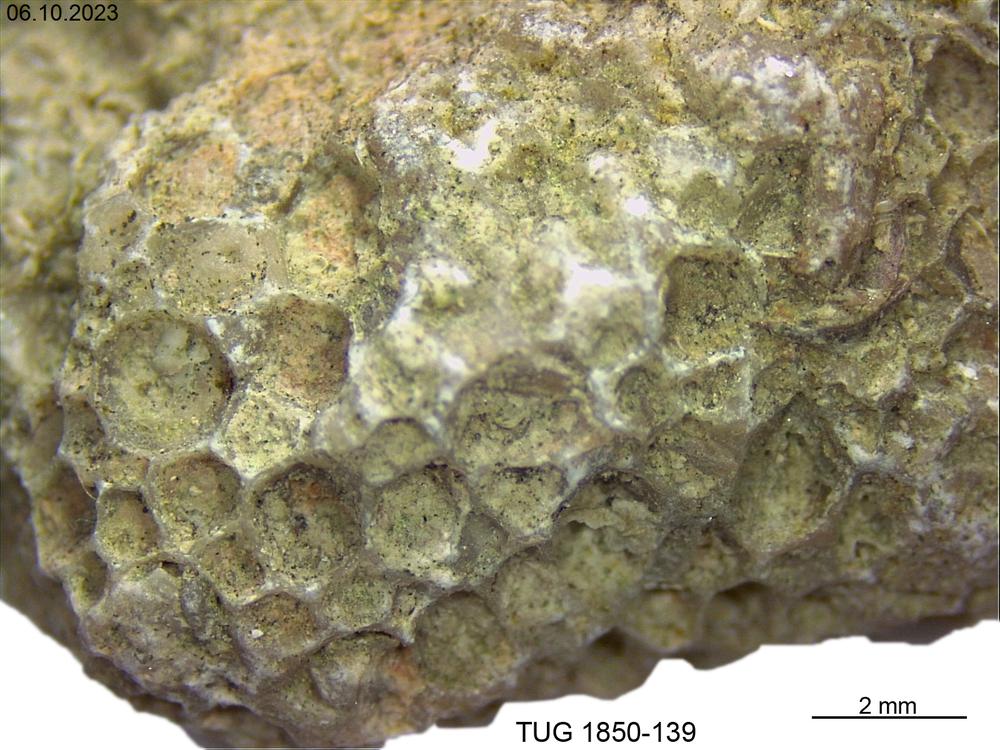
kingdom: Animalia
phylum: Cnidaria
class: Anthozoa
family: Favositidae
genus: Favosites
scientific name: Favosites
